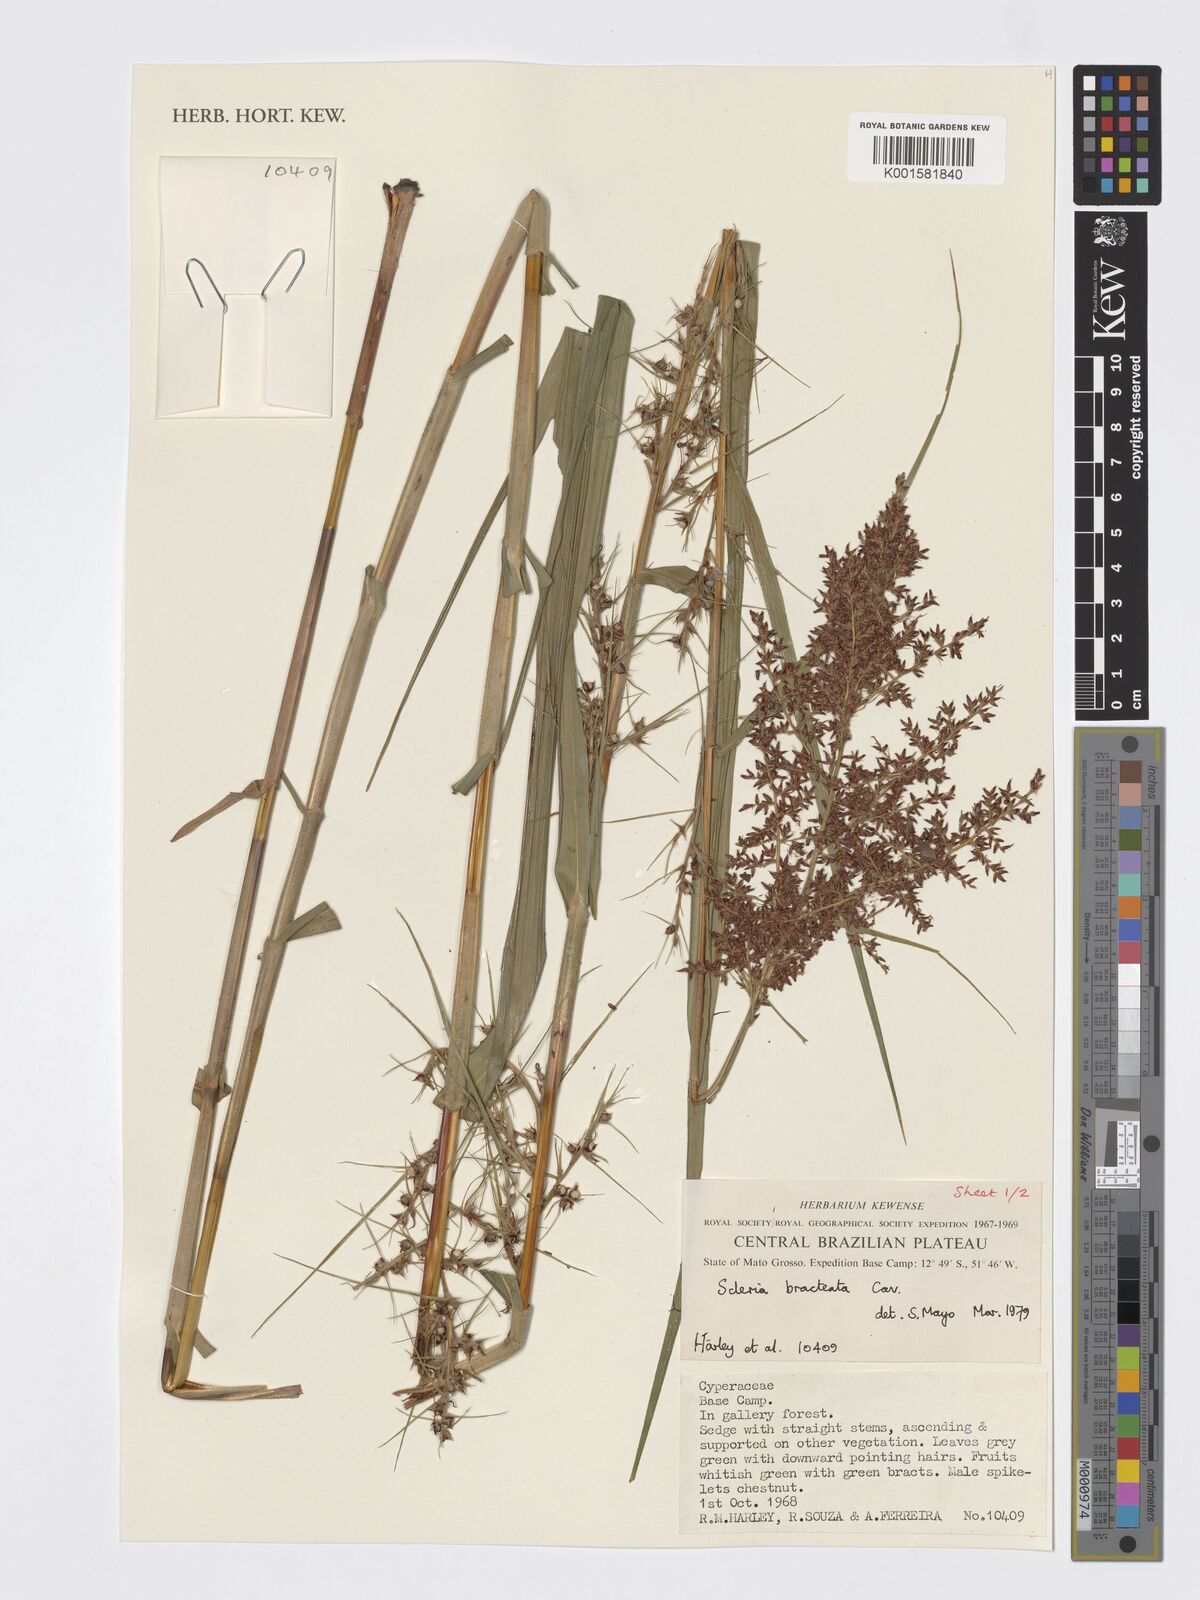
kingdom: Plantae
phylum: Tracheophyta
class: Liliopsida
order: Poales
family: Cyperaceae
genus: Scleria
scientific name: Scleria bracteata
